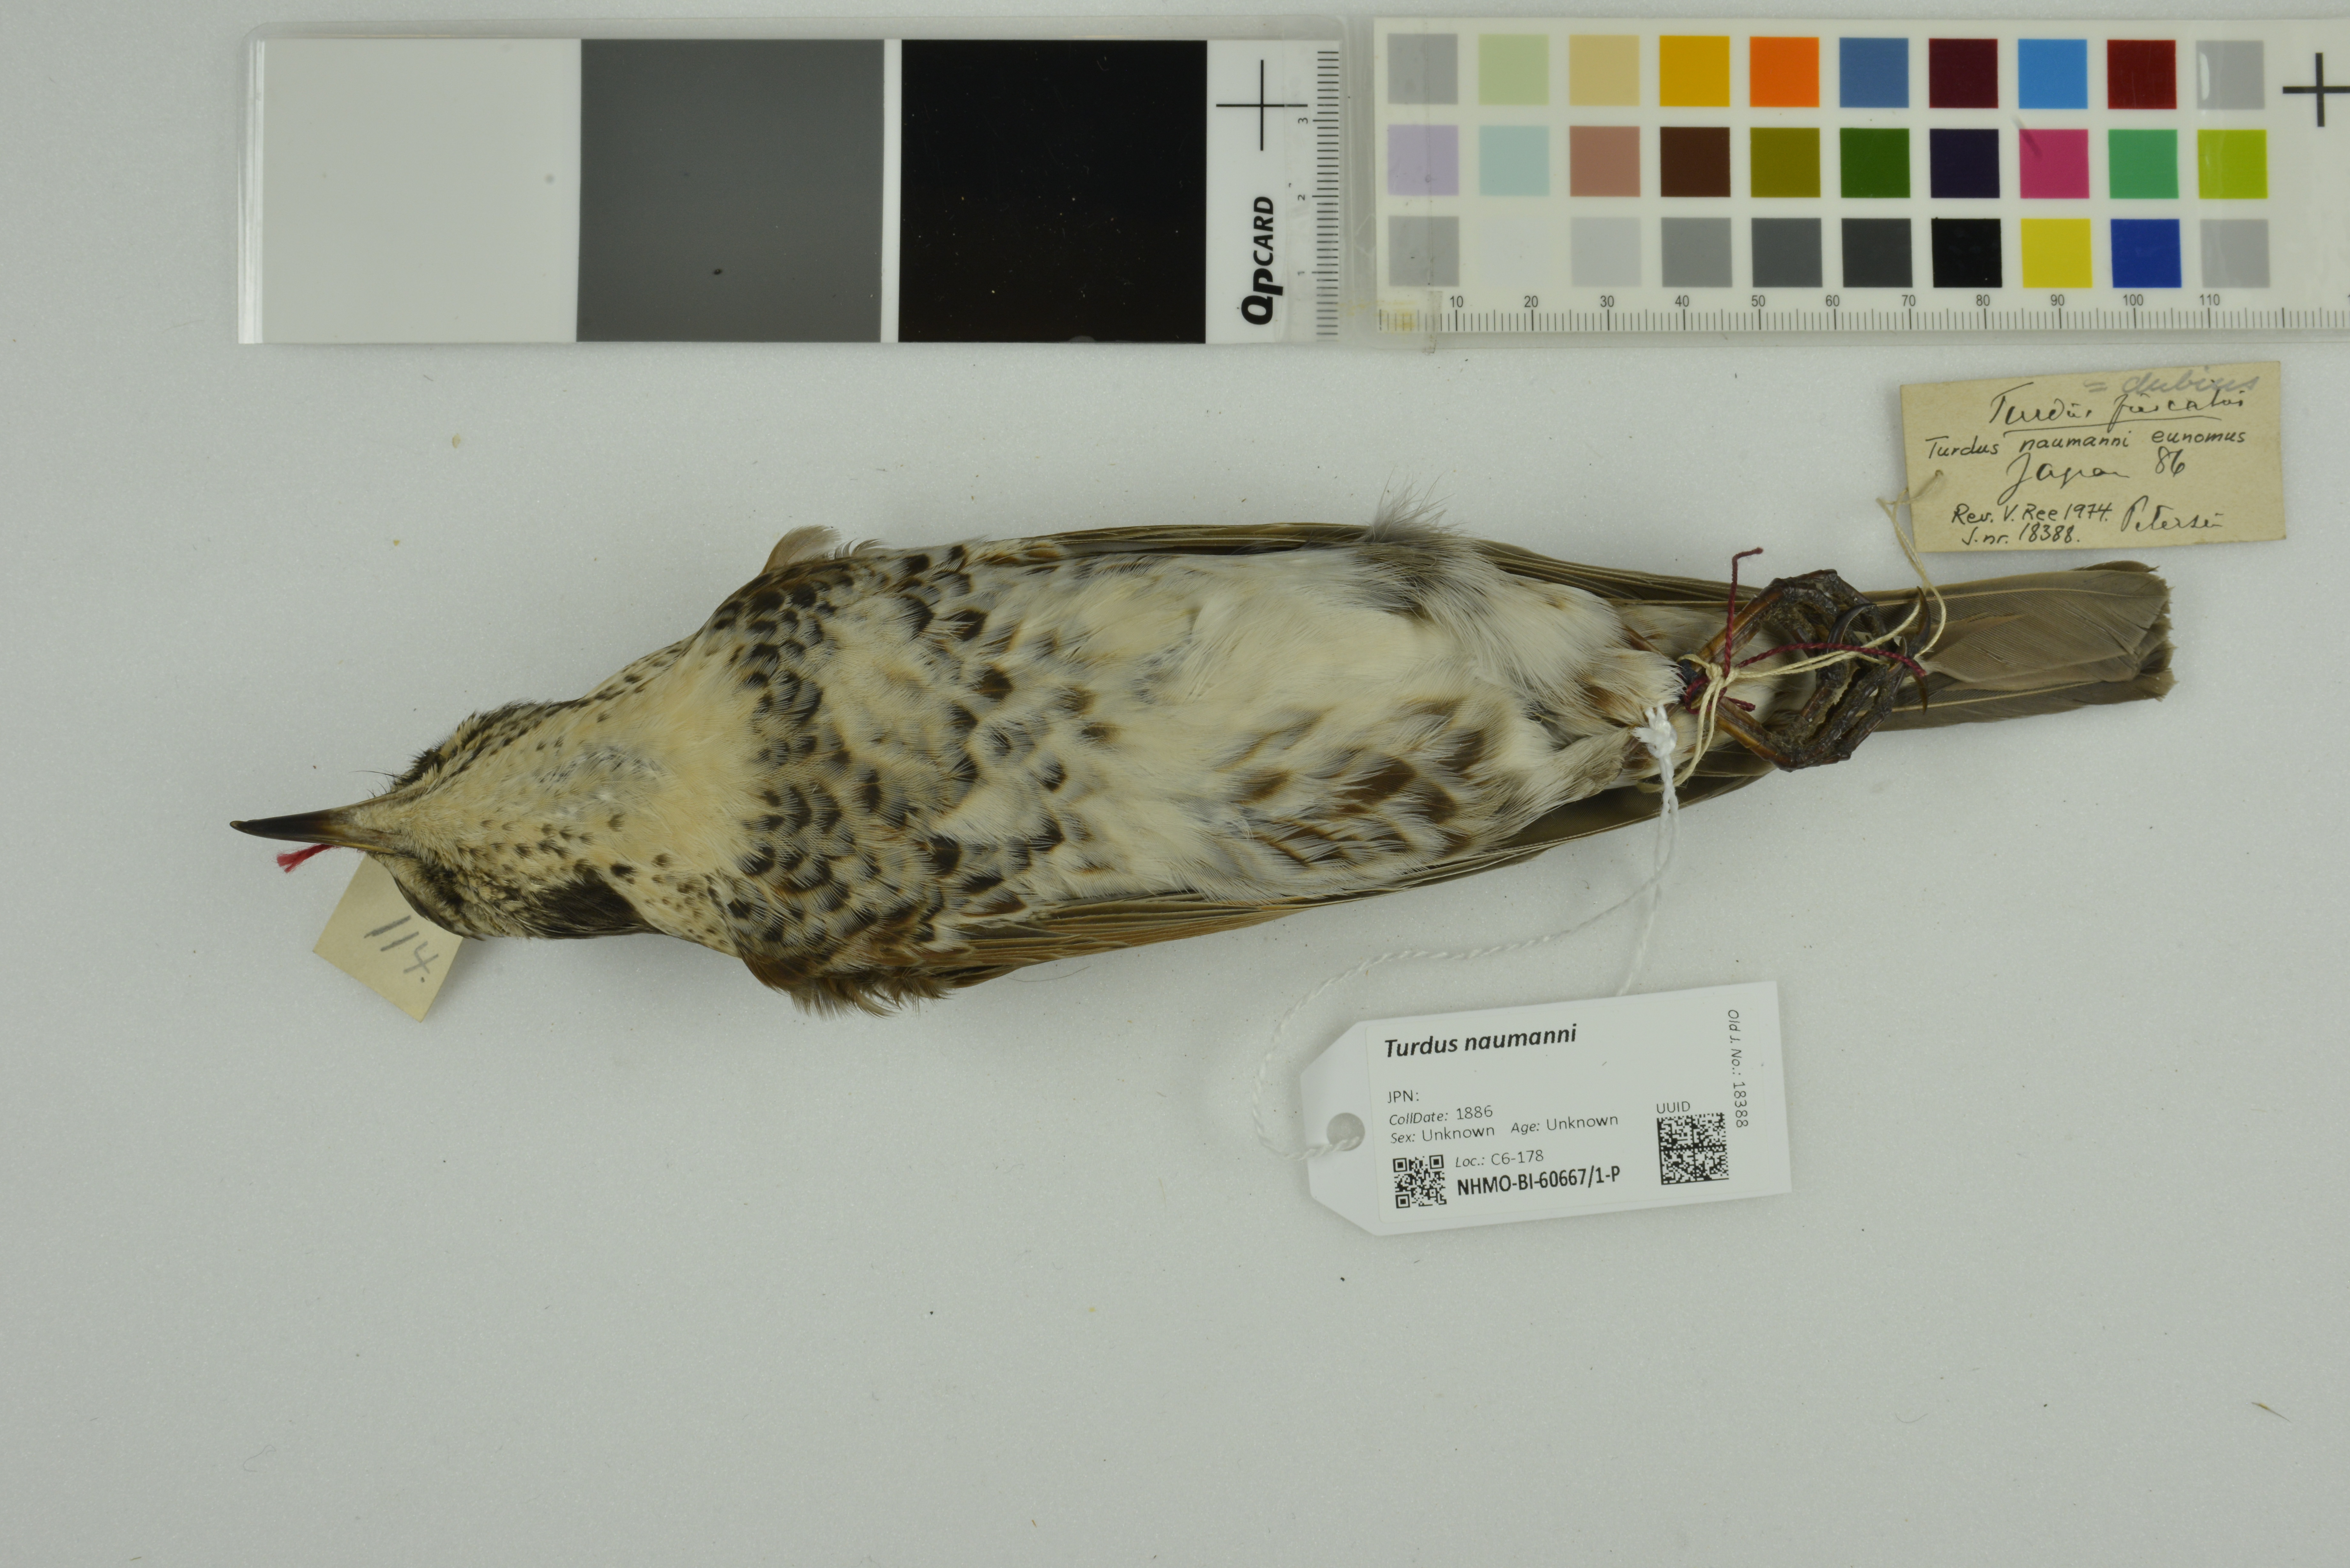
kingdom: Animalia
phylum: Chordata
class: Aves
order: Passeriformes
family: Turdidae
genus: Turdus
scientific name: Turdus naumanni
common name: Naumann's thrush
